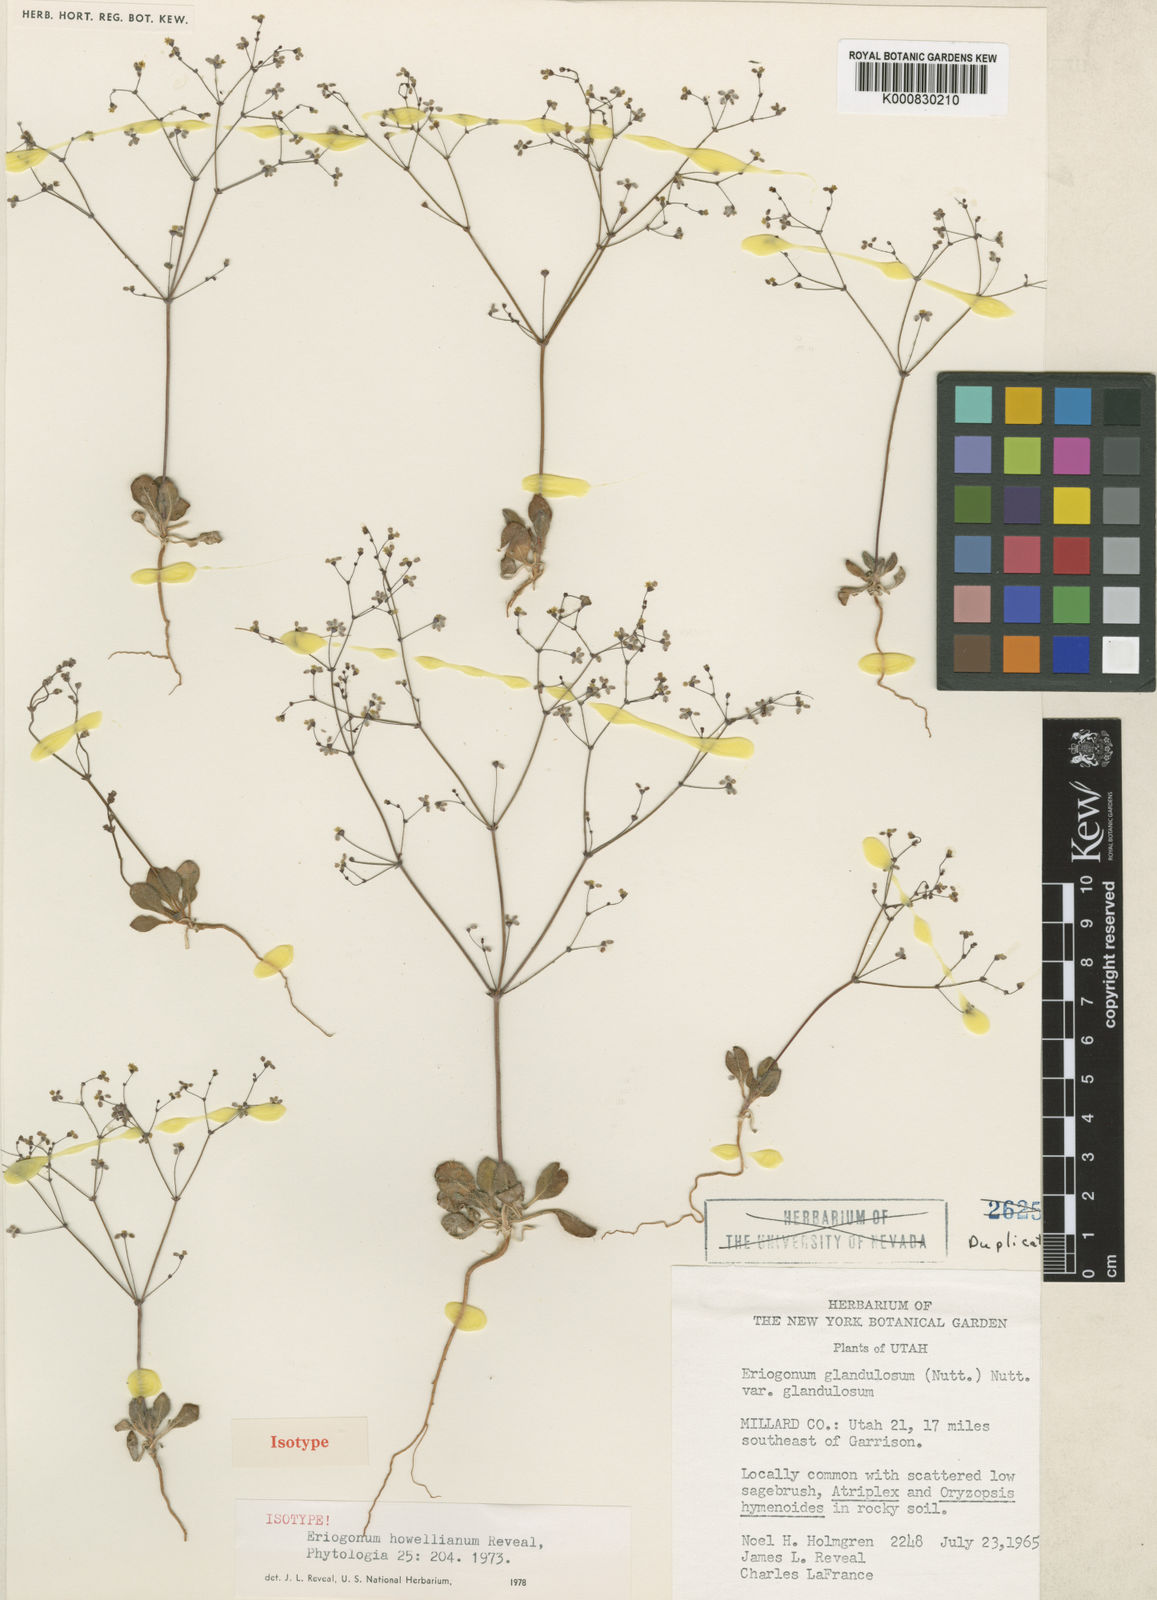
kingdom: Plantae
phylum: Tracheophyta
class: Magnoliopsida
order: Caryophyllales
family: Polygonaceae
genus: Eriogonum
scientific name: Eriogonum howellianum
